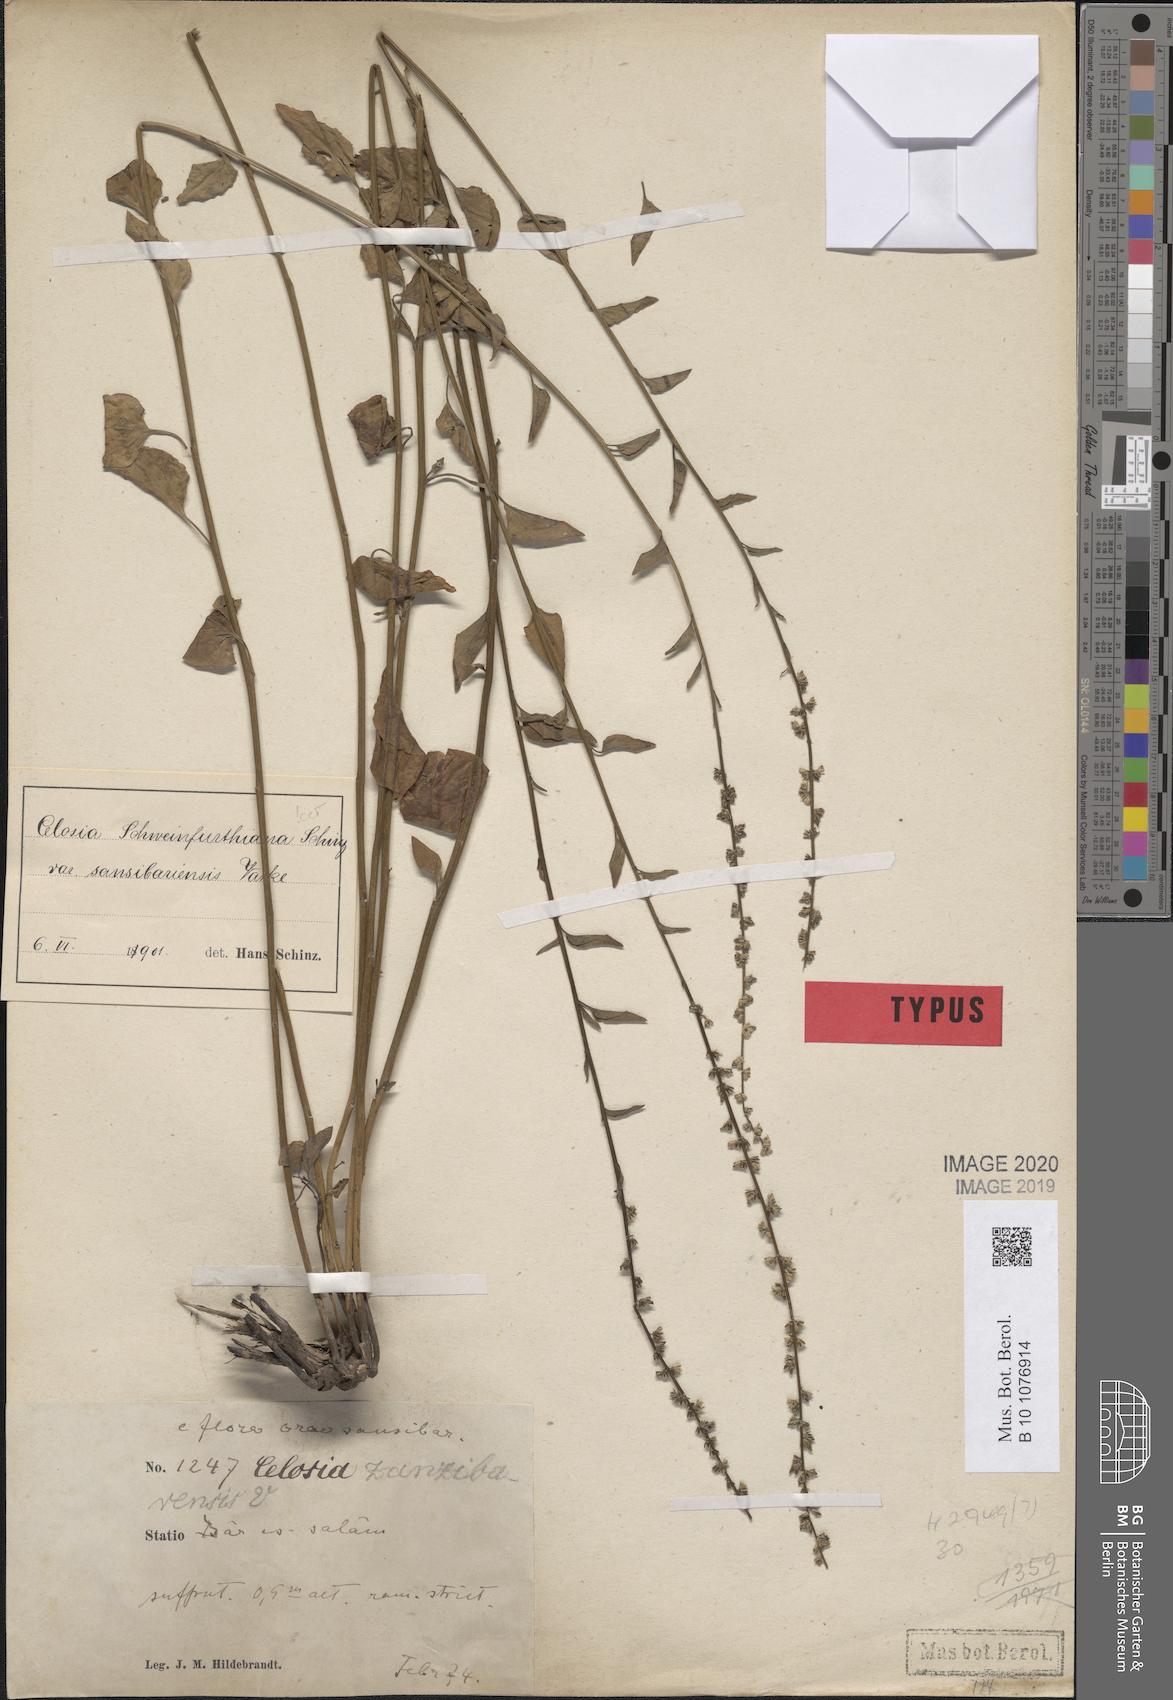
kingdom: Plantae
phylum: Tracheophyta
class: Magnoliopsida
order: Caryophyllales
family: Amaranthaceae
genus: Celosia
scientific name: Celosia schweinfurthiana
